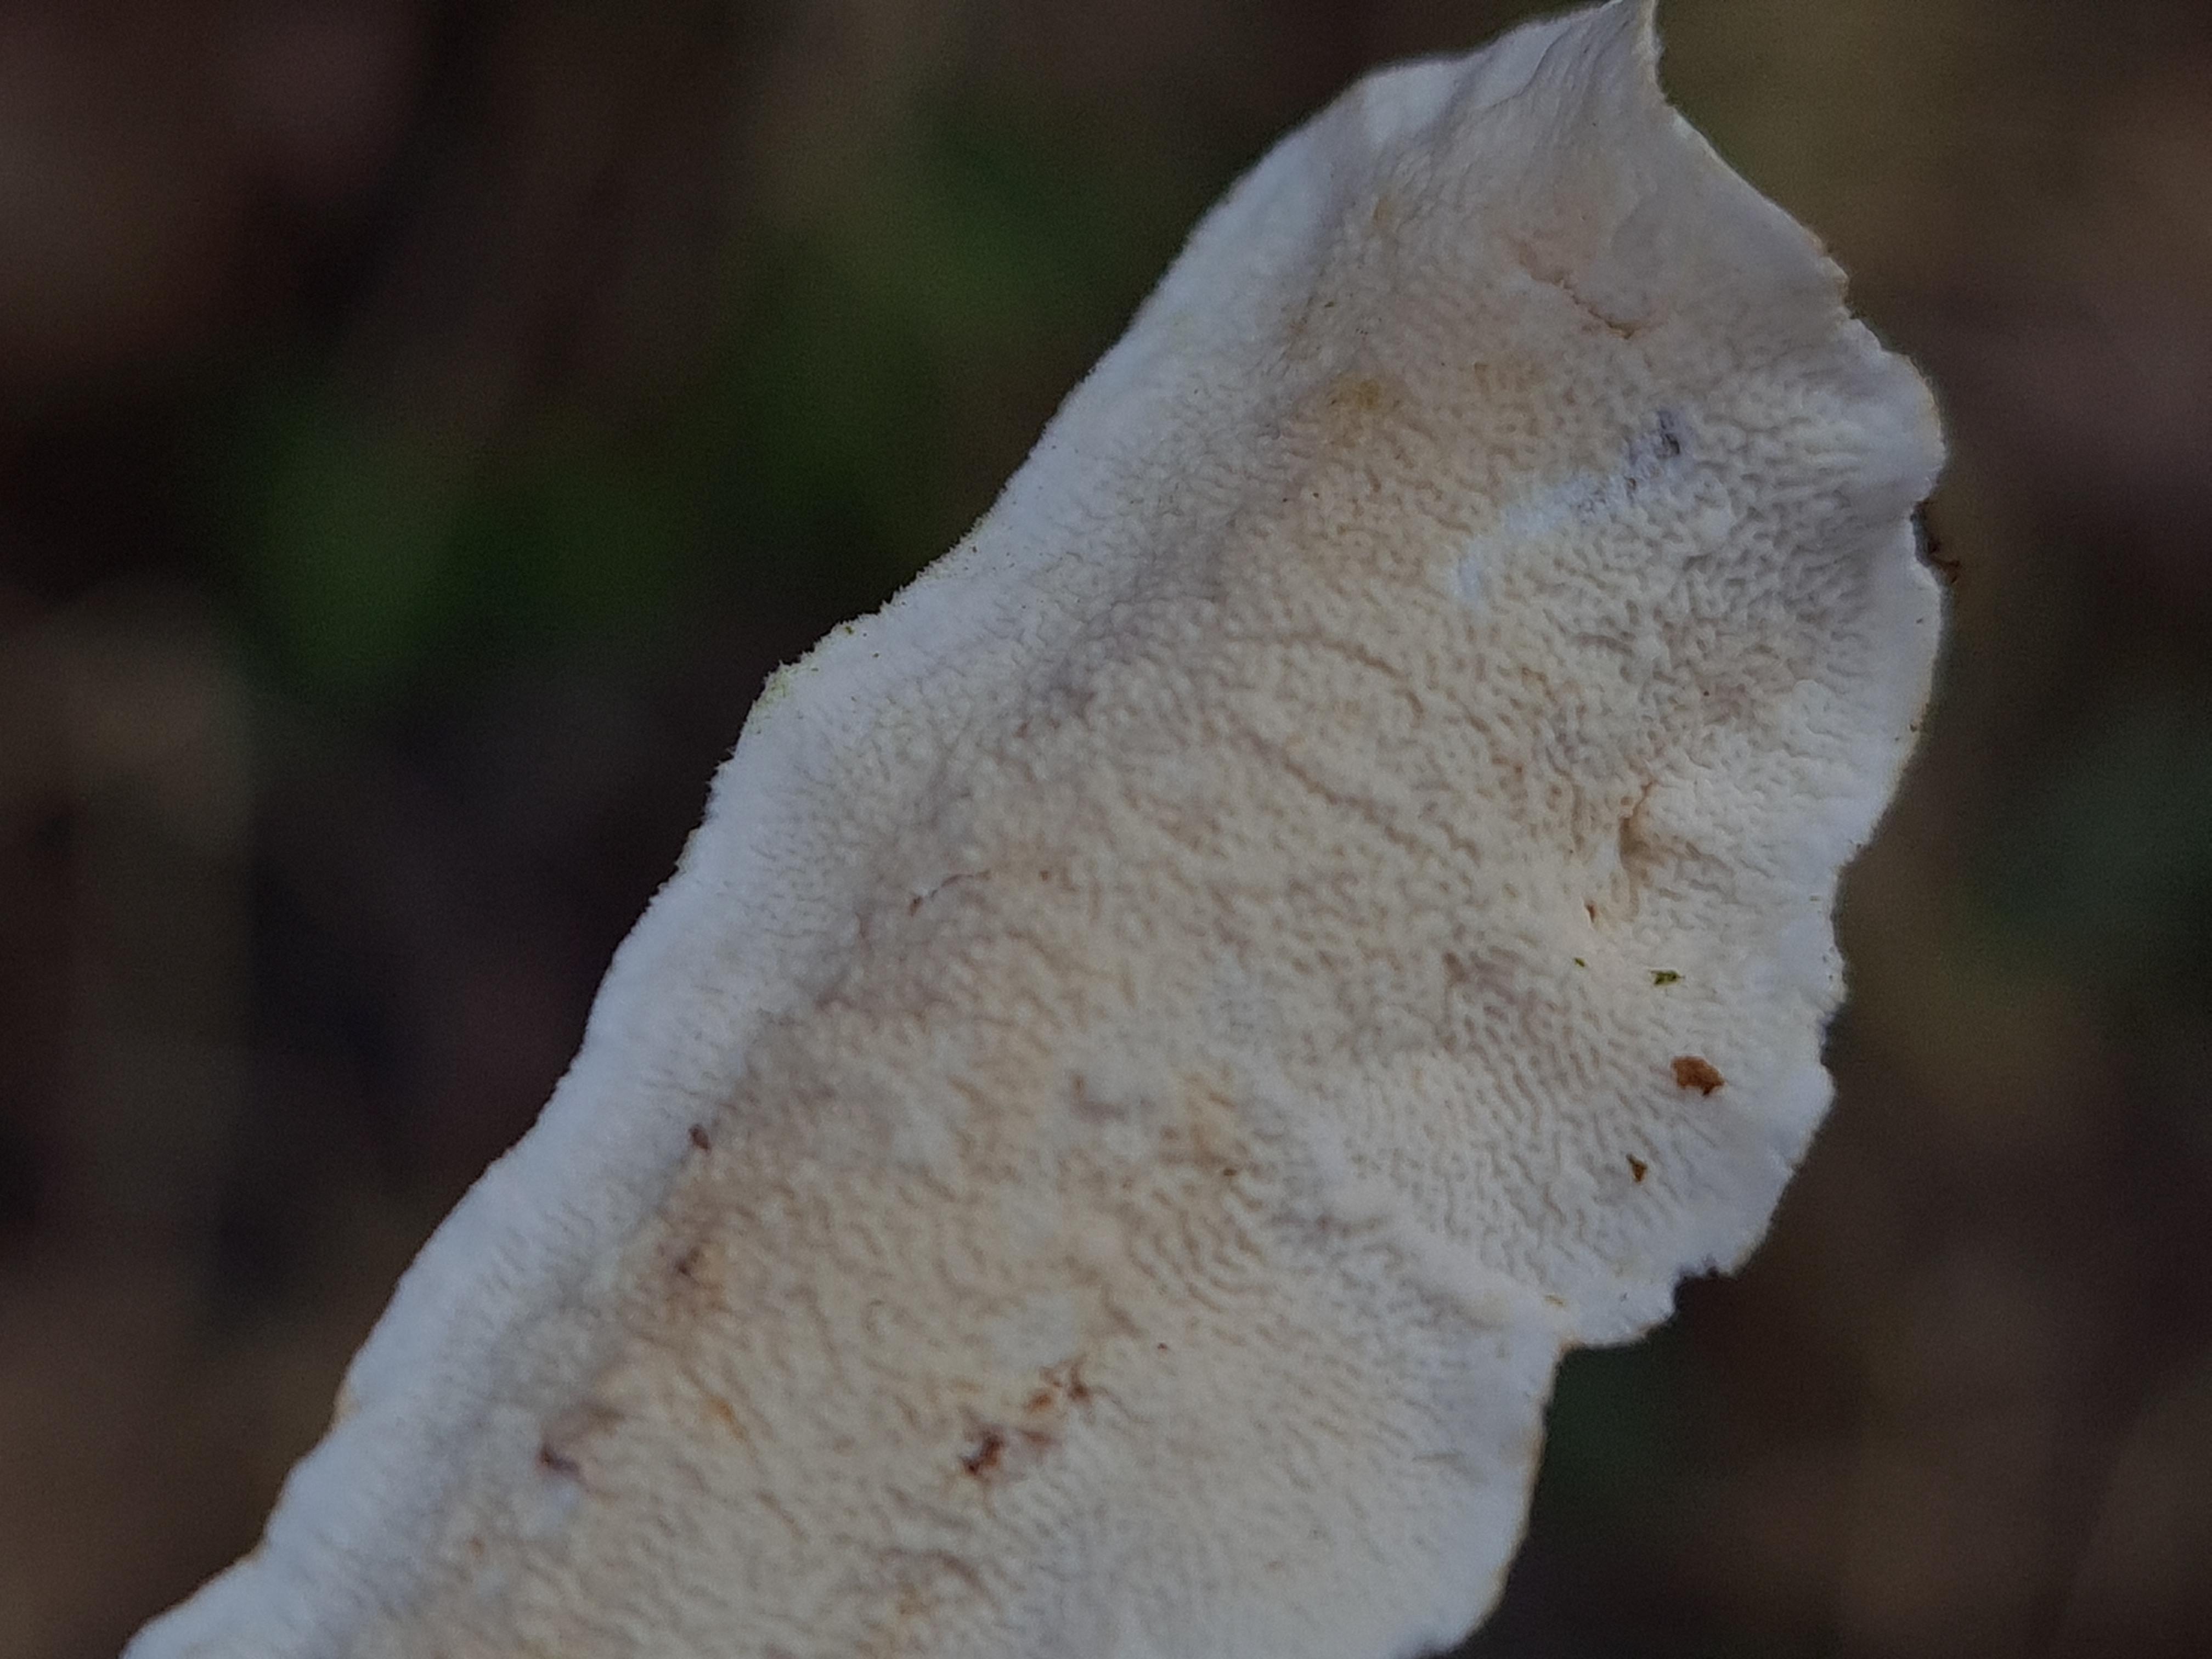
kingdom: Fungi
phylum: Basidiomycota
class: Agaricomycetes
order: Polyporales
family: Irpicaceae
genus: Byssomerulius
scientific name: Byssomerulius corium
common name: læder-åresvamp
